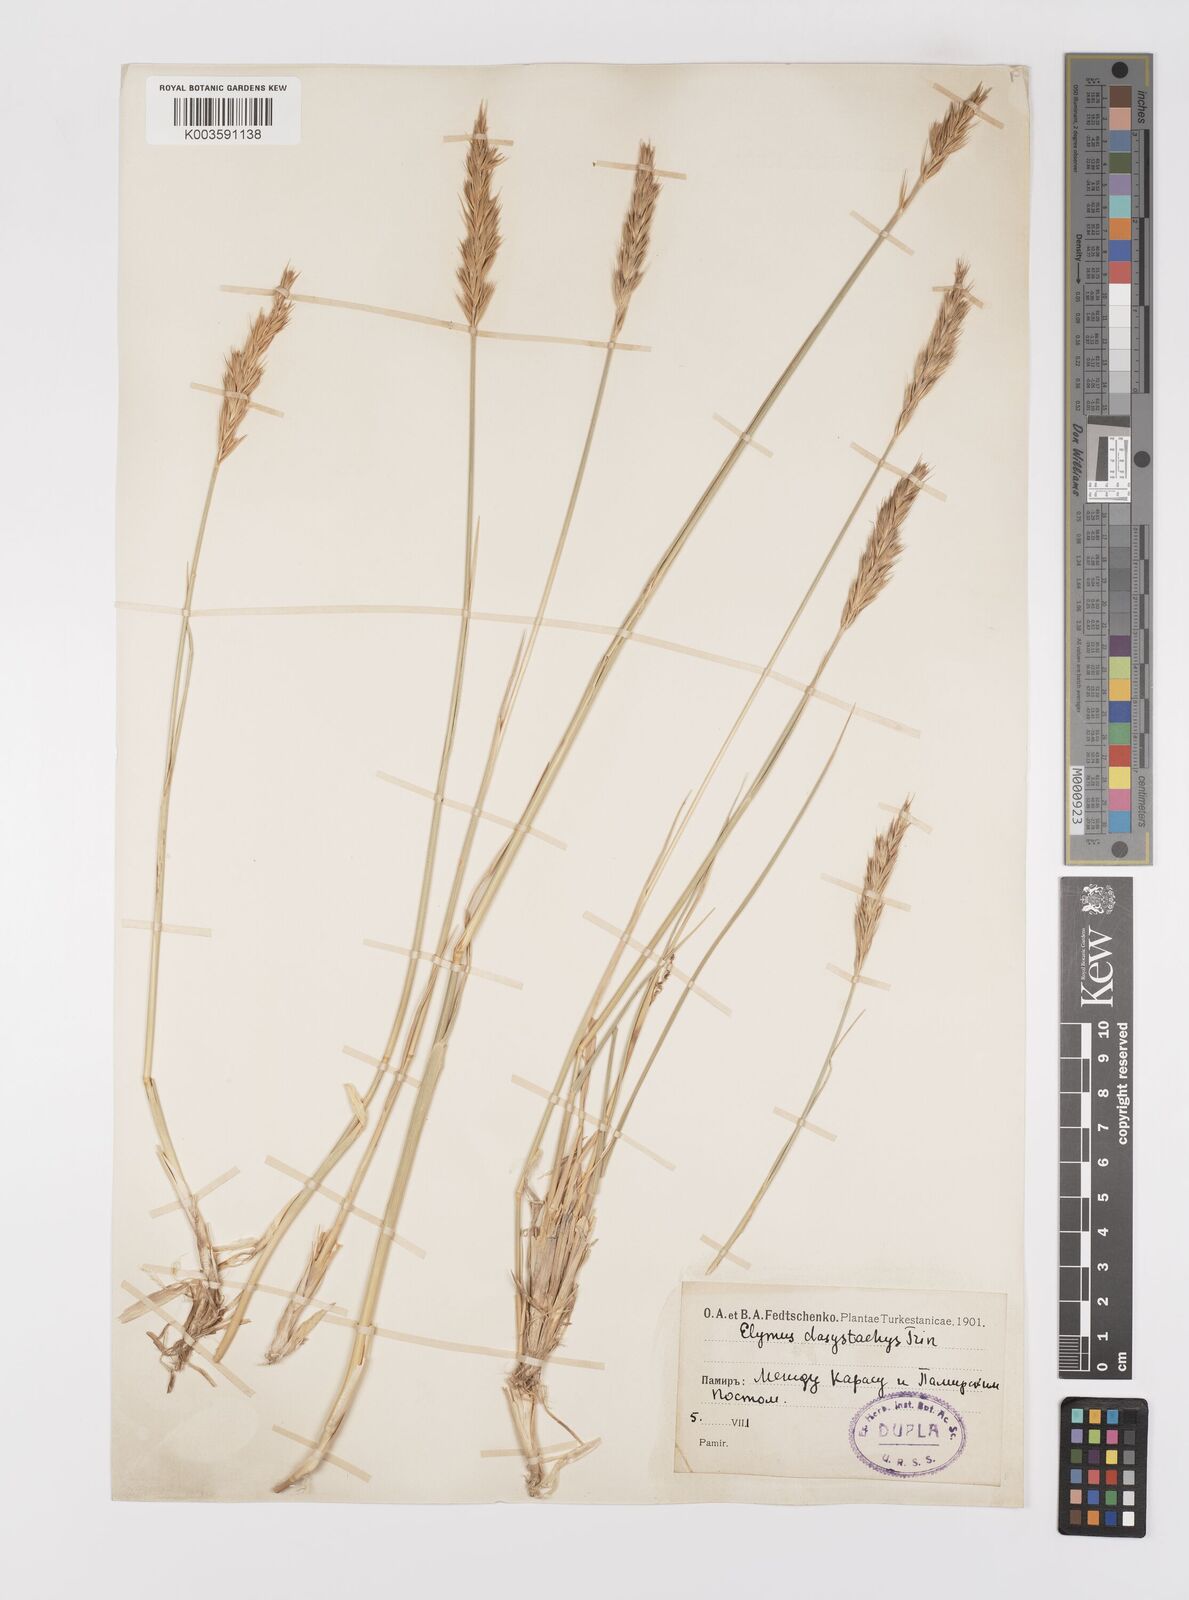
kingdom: Plantae
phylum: Tracheophyta
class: Liliopsida
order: Poales
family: Poaceae
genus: Leymus
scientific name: Leymus secalinus
